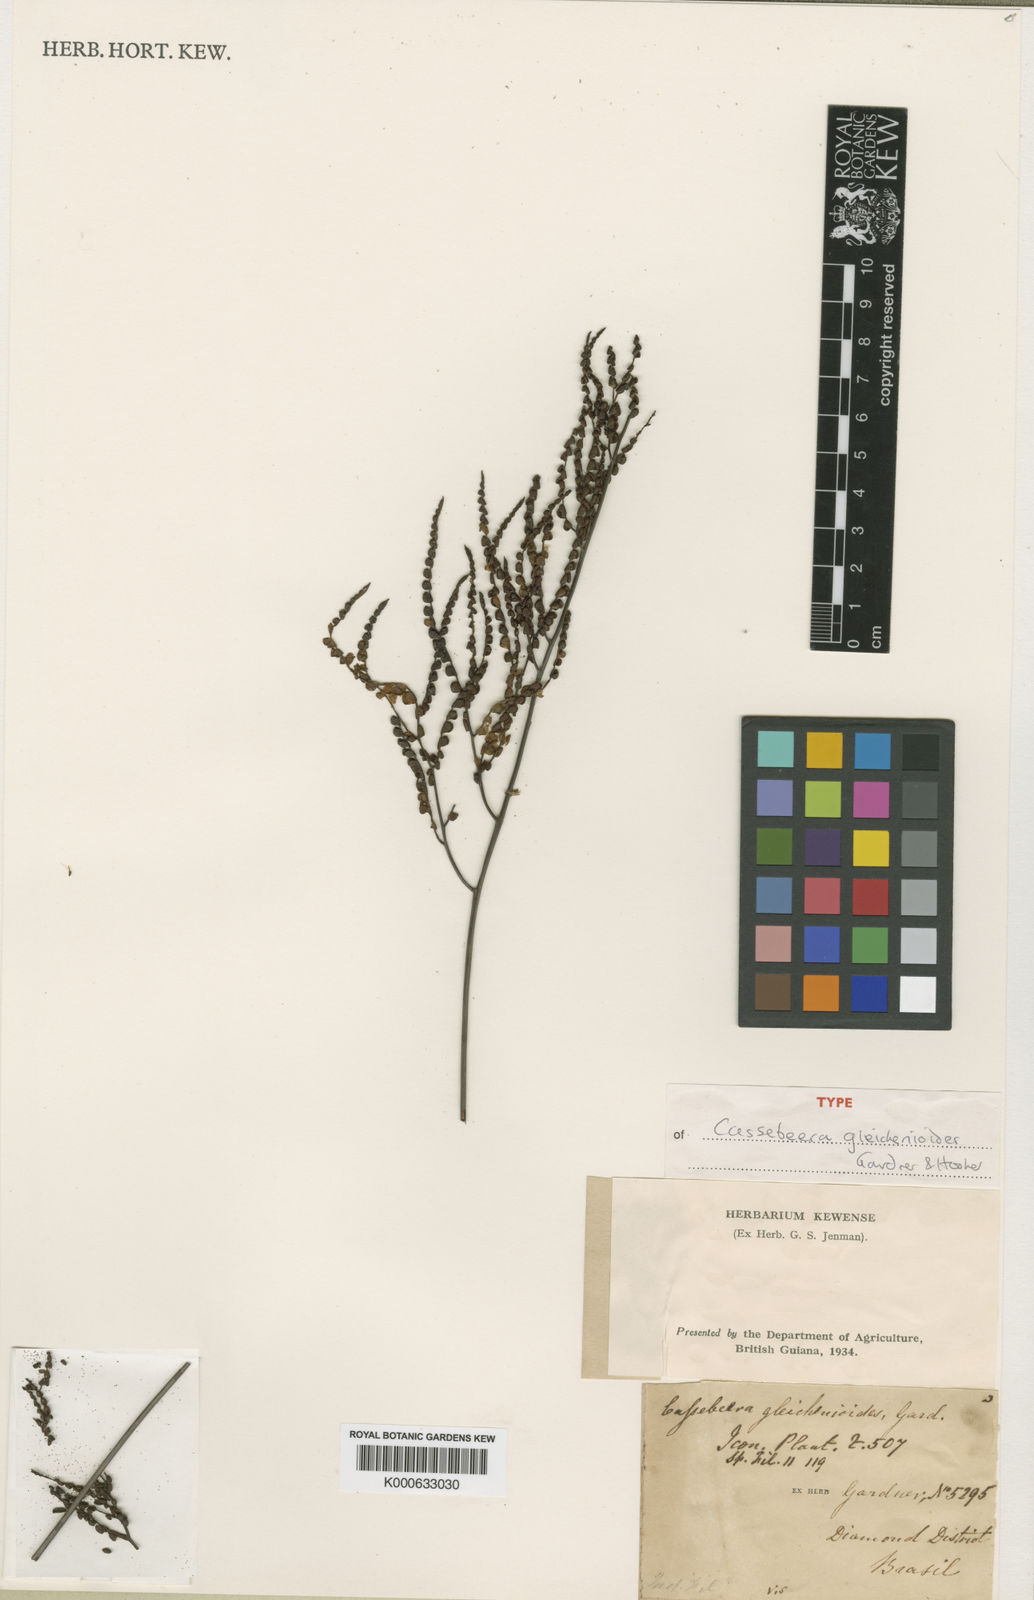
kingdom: Plantae
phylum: Tracheophyta
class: Polypodiopsida
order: Polypodiales
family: Pteridaceae
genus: Ormopteris
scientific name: Ormopteris gleichenioides
